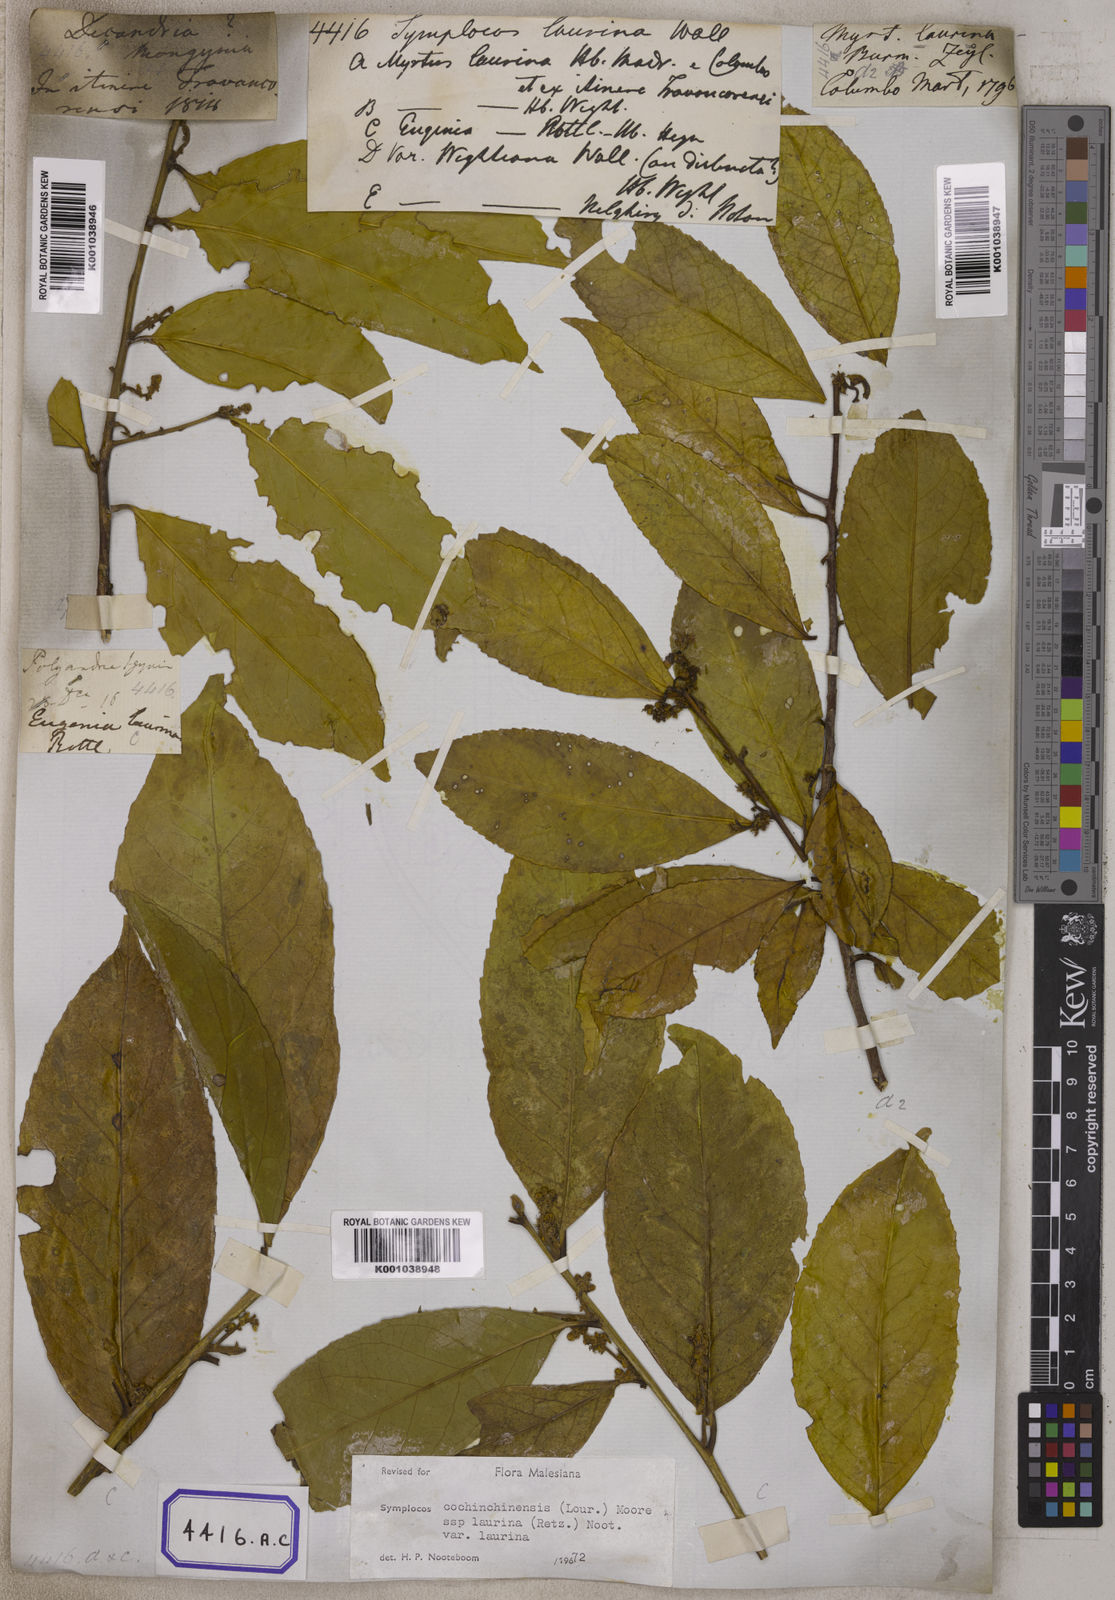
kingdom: Plantae
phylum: Tracheophyta
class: Magnoliopsida
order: Ericales
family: Symplocaceae
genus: Symplocos
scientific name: Symplocos
